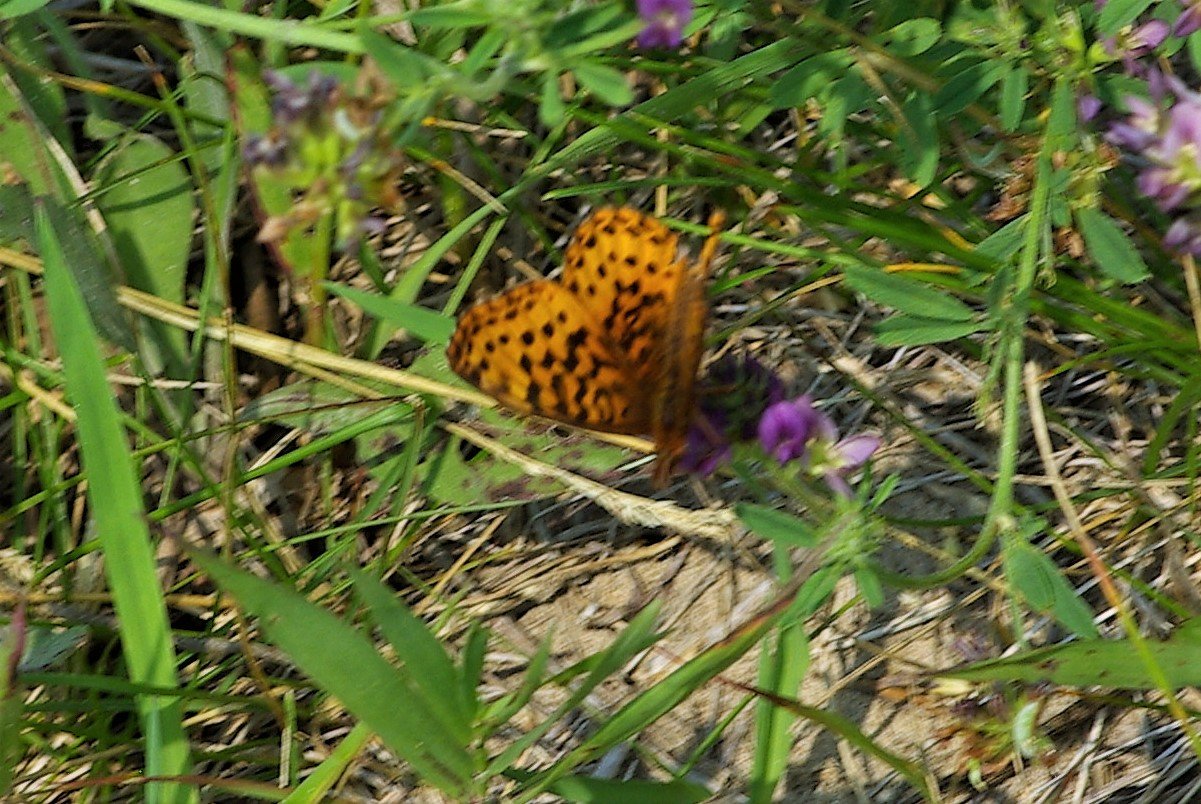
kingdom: Animalia
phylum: Arthropoda
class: Insecta
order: Lepidoptera
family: Nymphalidae
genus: Clossiana
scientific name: Clossiana toddi
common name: Meadow Fritillary
